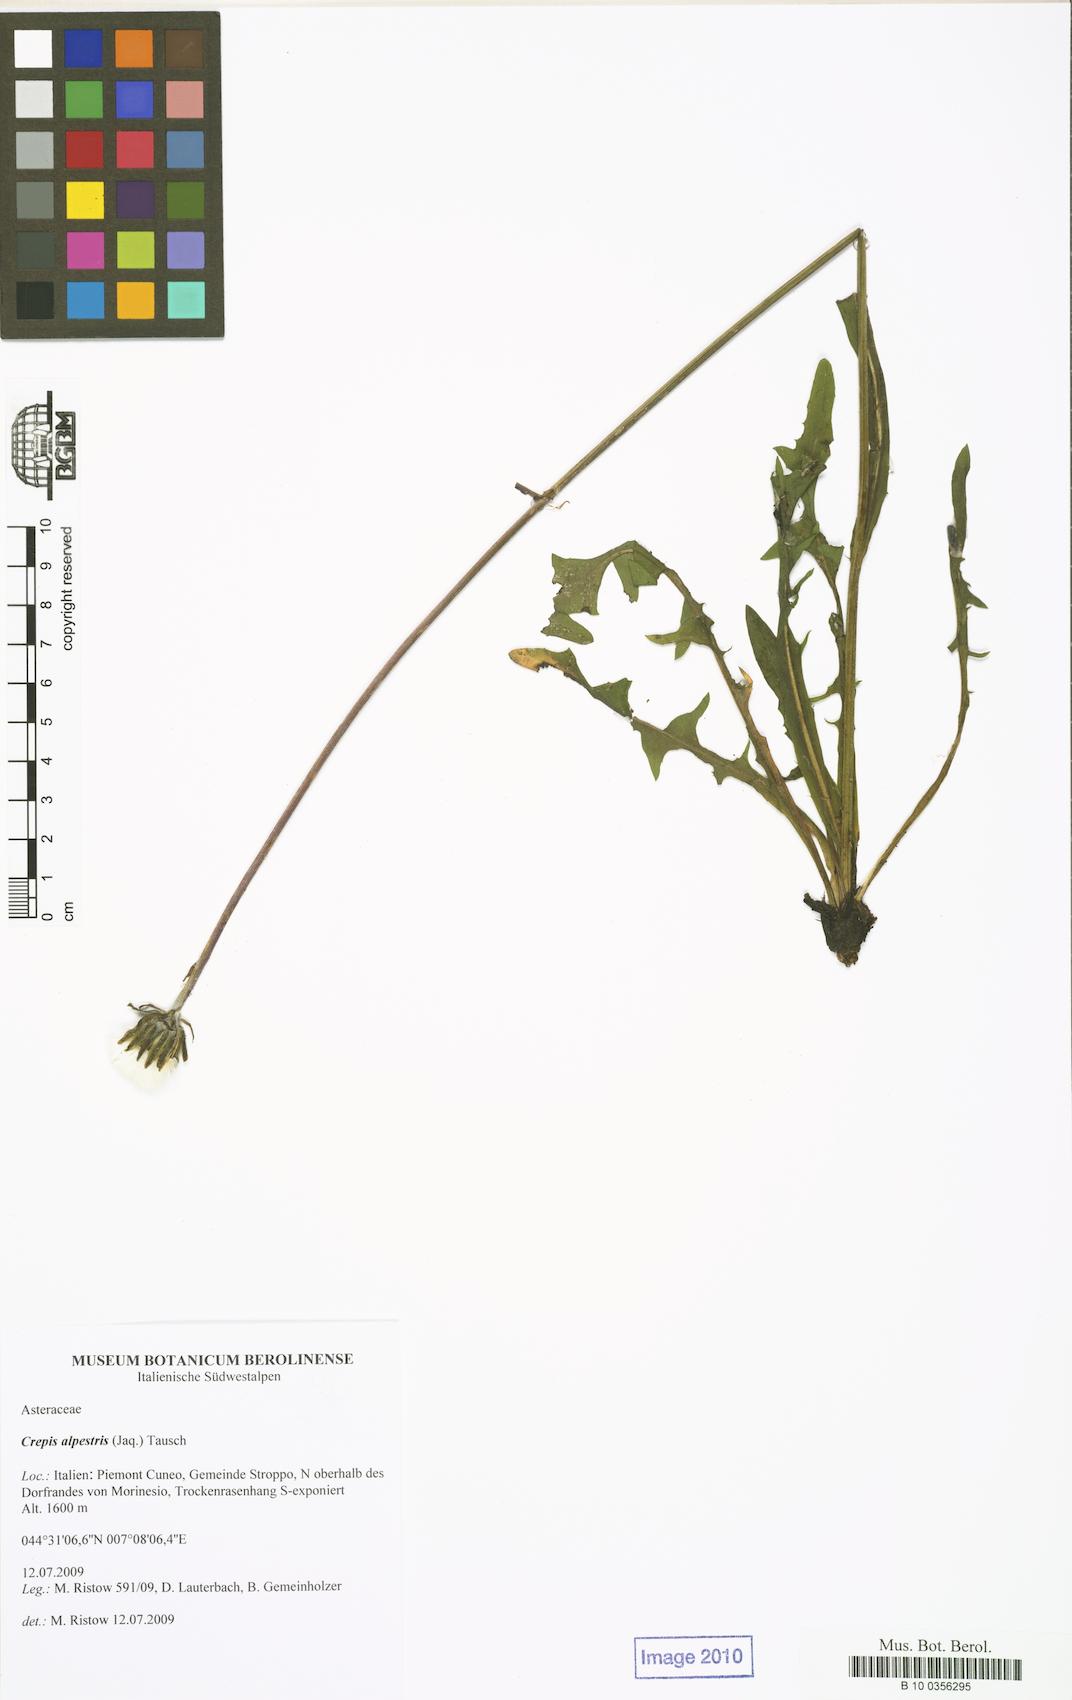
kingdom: Plantae
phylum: Tracheophyta
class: Magnoliopsida
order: Asterales
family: Asteraceae
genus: Crepis
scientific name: Crepis alpestris
